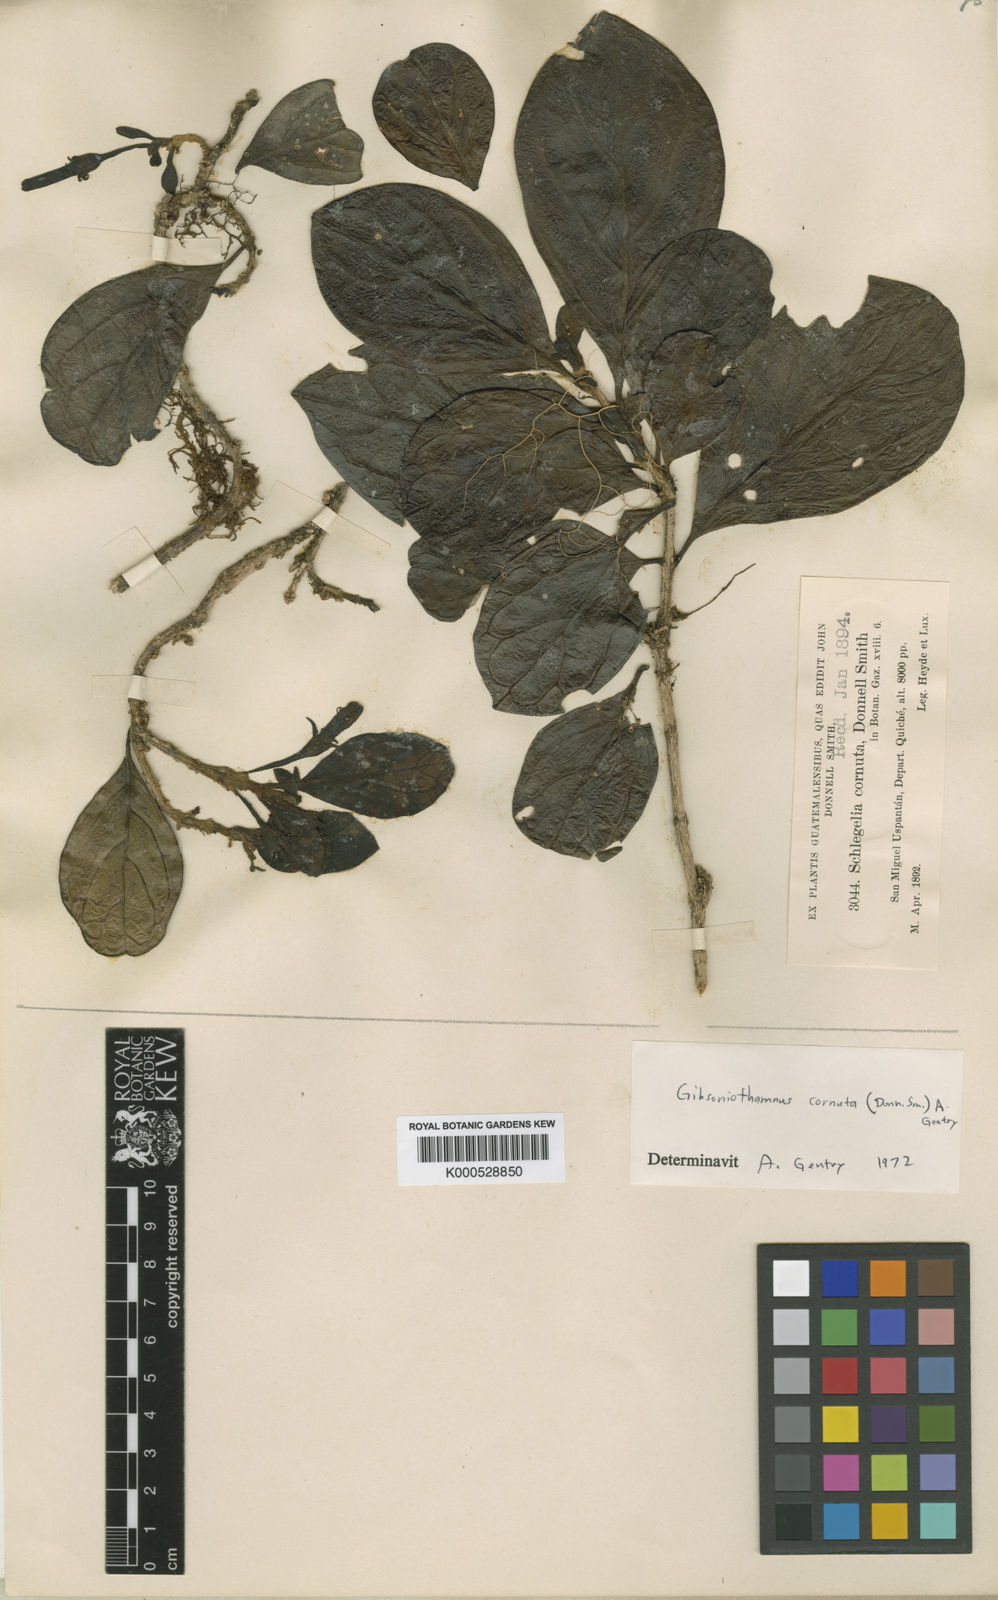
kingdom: Plantae
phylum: Tracheophyta
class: Magnoliopsida
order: Lamiales
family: Schlegeliaceae
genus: Gibsoniothamnus
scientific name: Gibsoniothamnus cornutus
